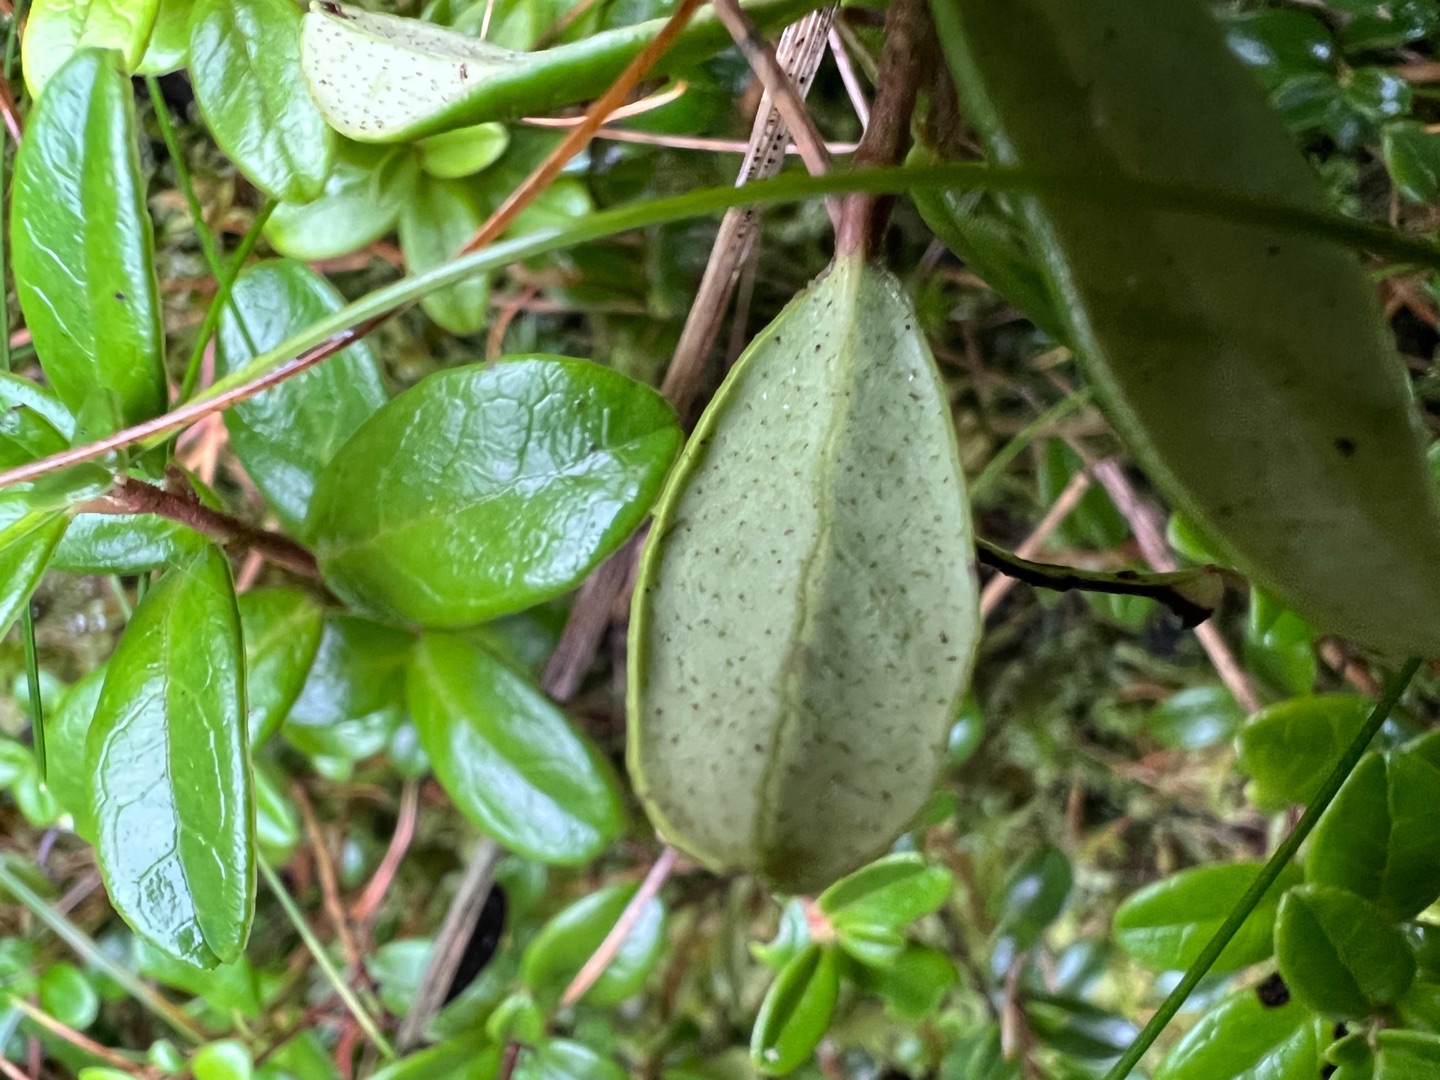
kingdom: Plantae
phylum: Tracheophyta
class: Magnoliopsida
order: Ericales
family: Ericaceae
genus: Vaccinium
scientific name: Vaccinium vitis-idaea
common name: Tyttebær
